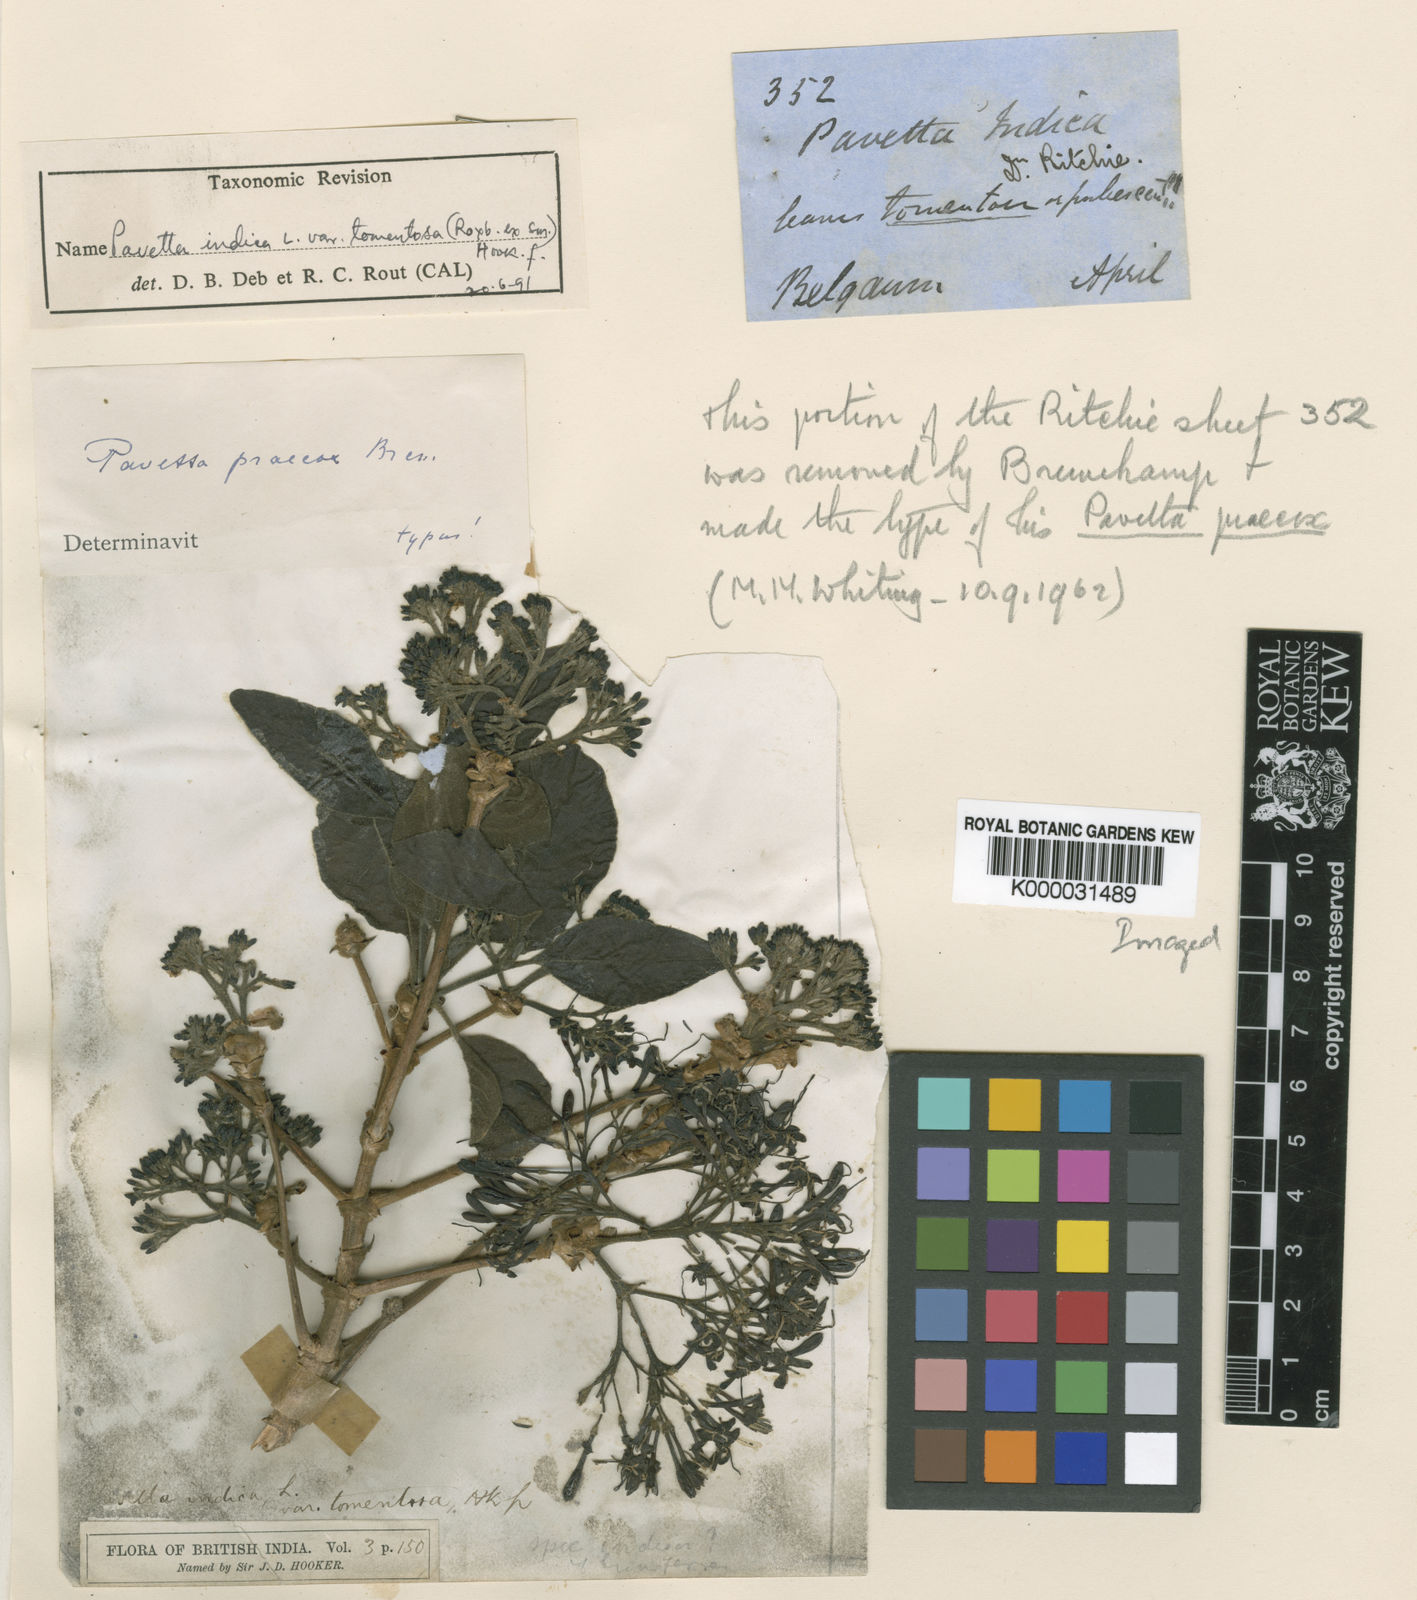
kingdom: Plantae
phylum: Tracheophyta
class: Magnoliopsida
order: Gentianales
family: Rubiaceae
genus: Pavetta
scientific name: Pavetta tomentosa
